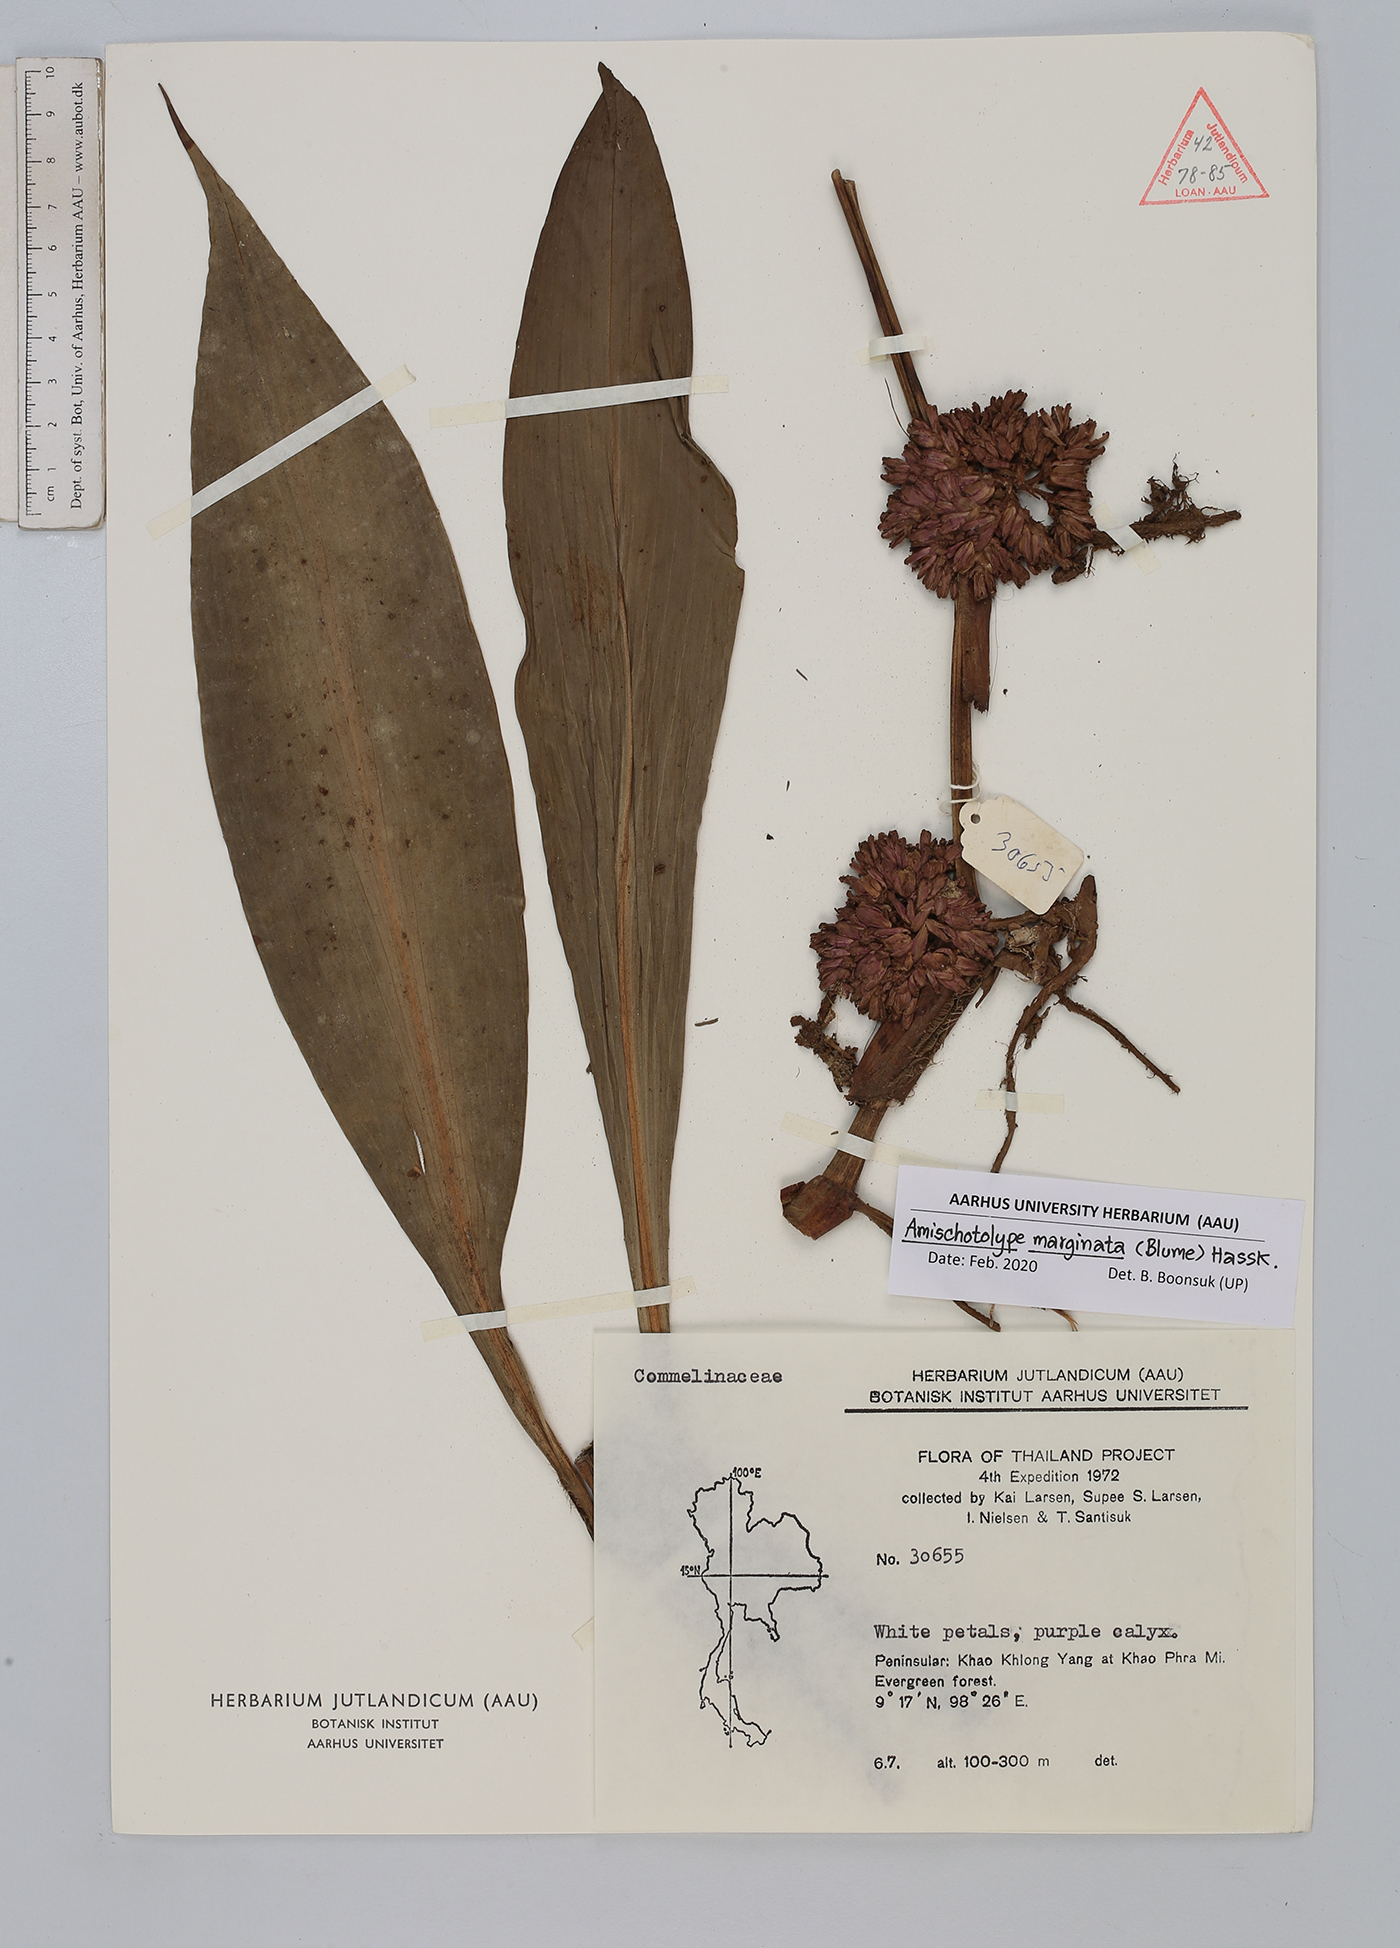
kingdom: Plantae
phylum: Tracheophyta
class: Liliopsida
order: Commelinales
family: Commelinaceae
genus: Amischotolype
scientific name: Amischotolype marginata
